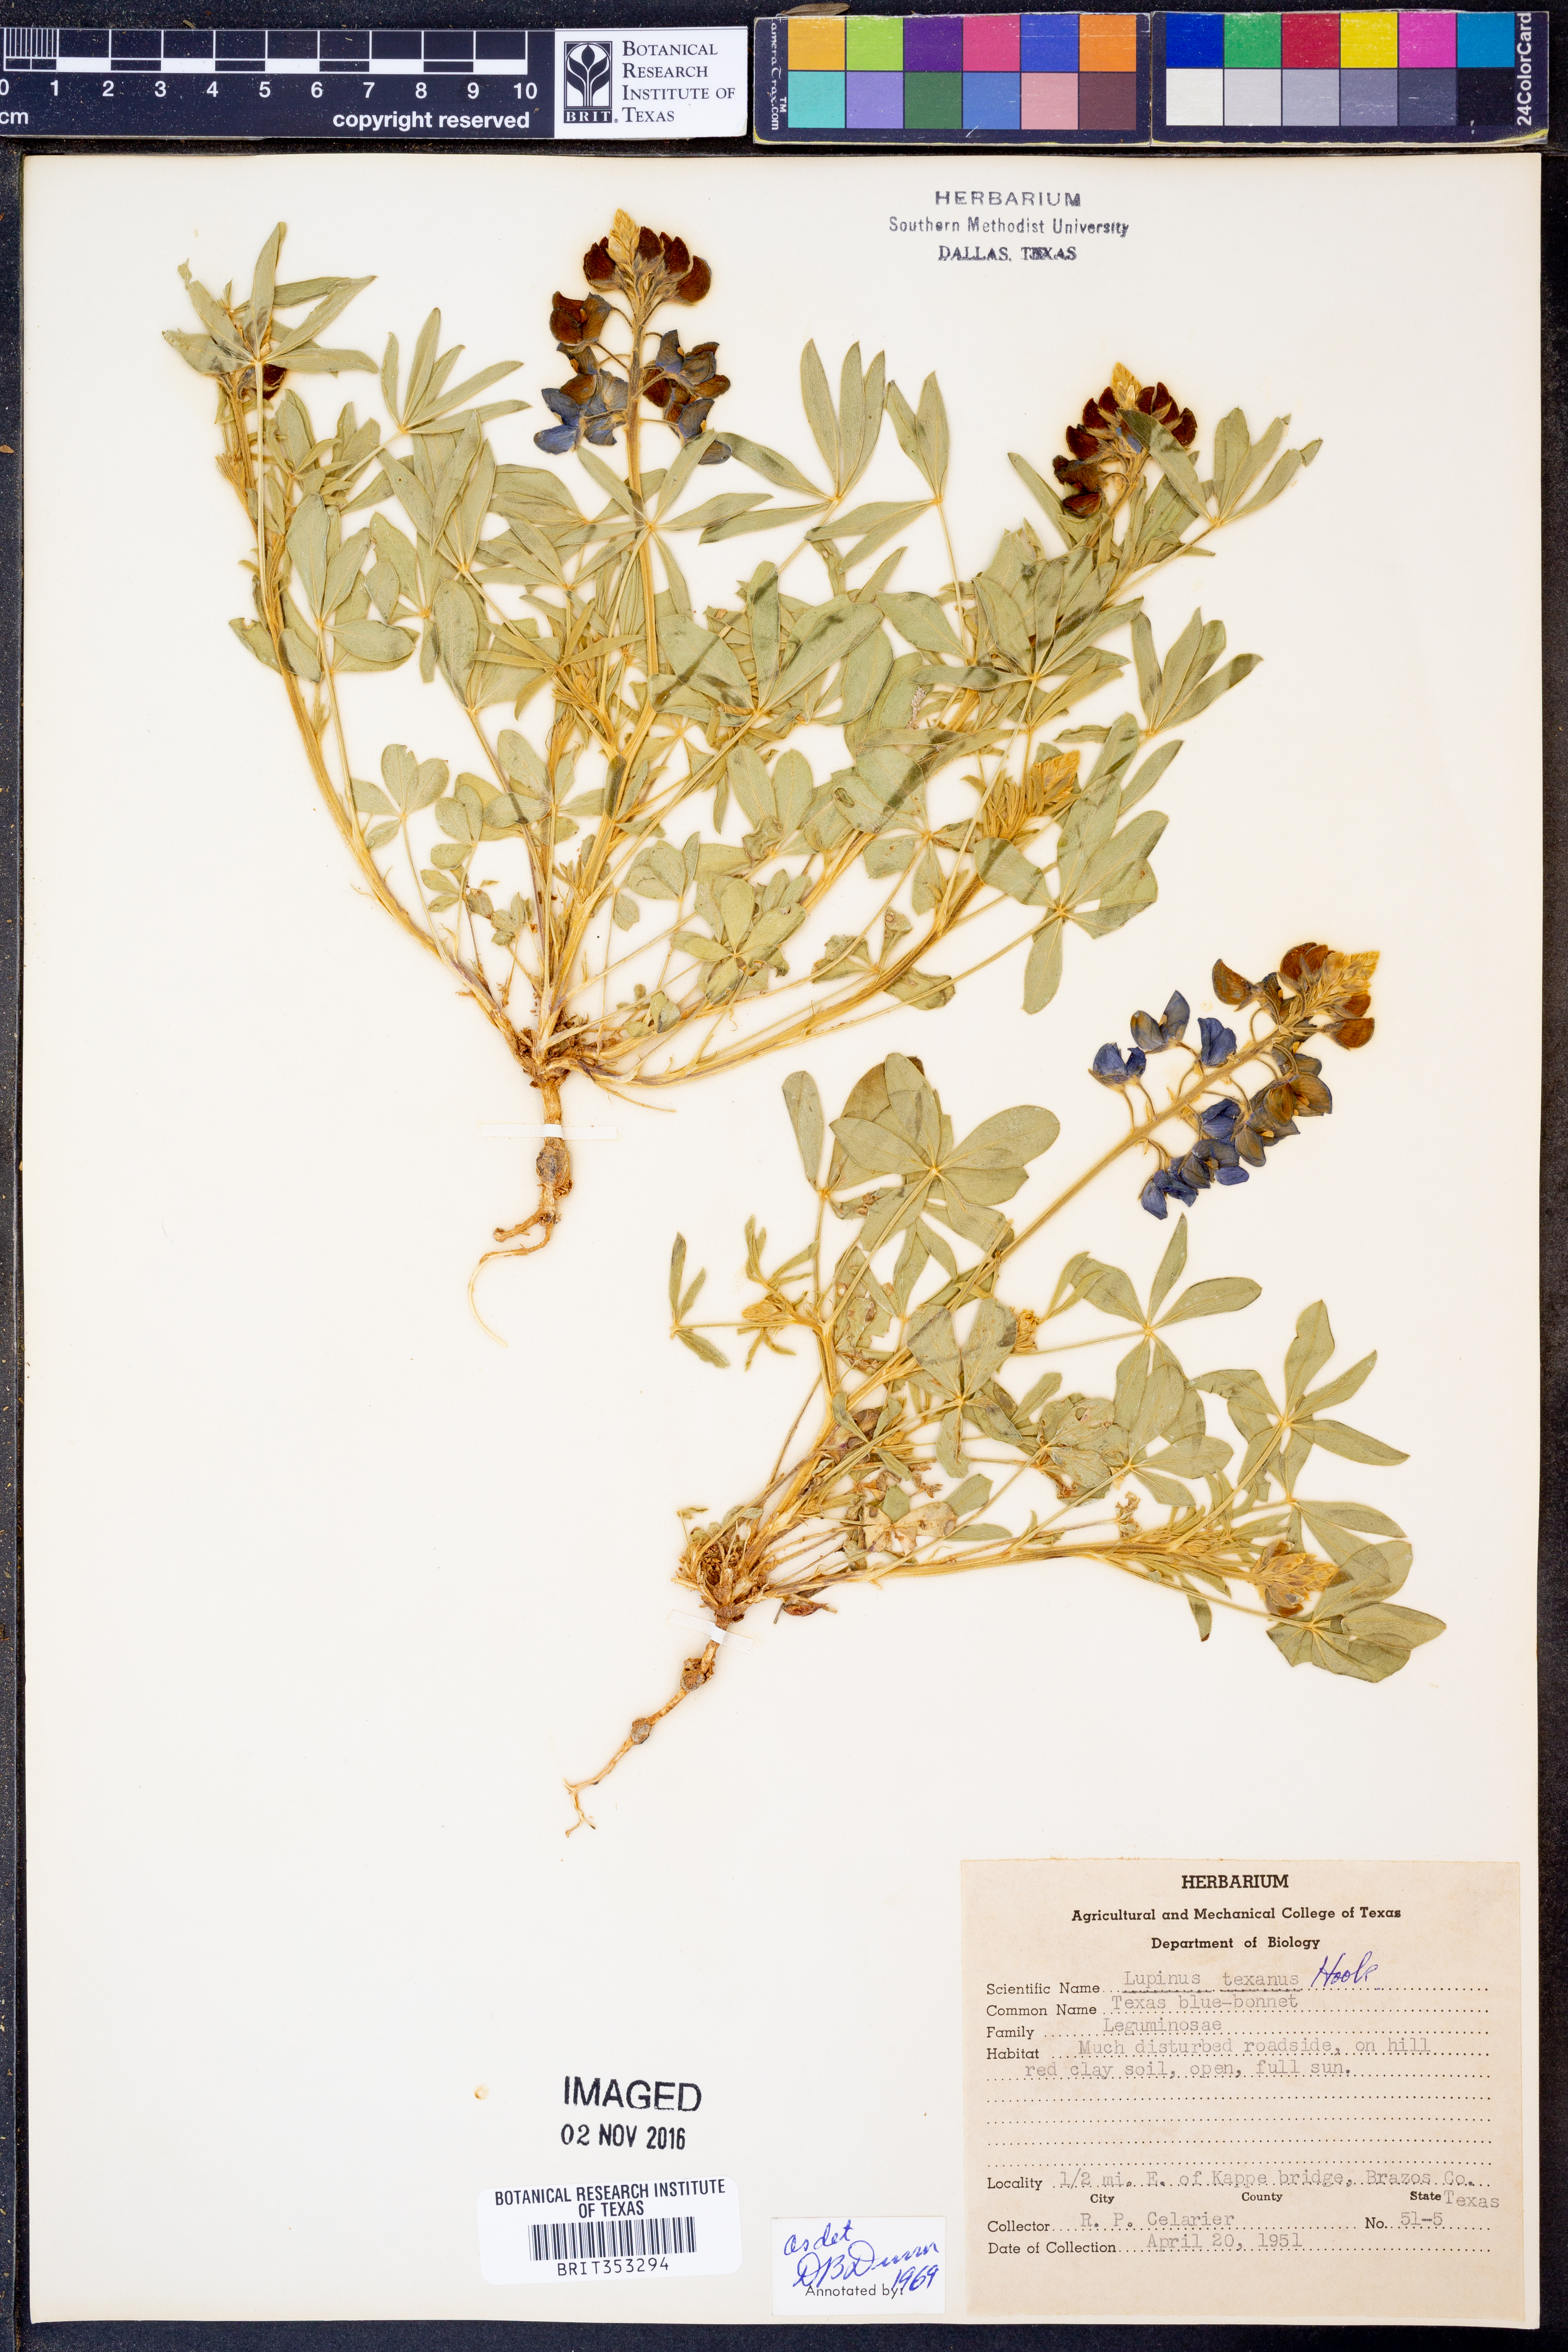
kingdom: Plantae
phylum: Tracheophyta
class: Magnoliopsida
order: Fabales
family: Fabaceae
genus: Lupinus
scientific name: Lupinus texensis
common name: Texas bluebonnet
